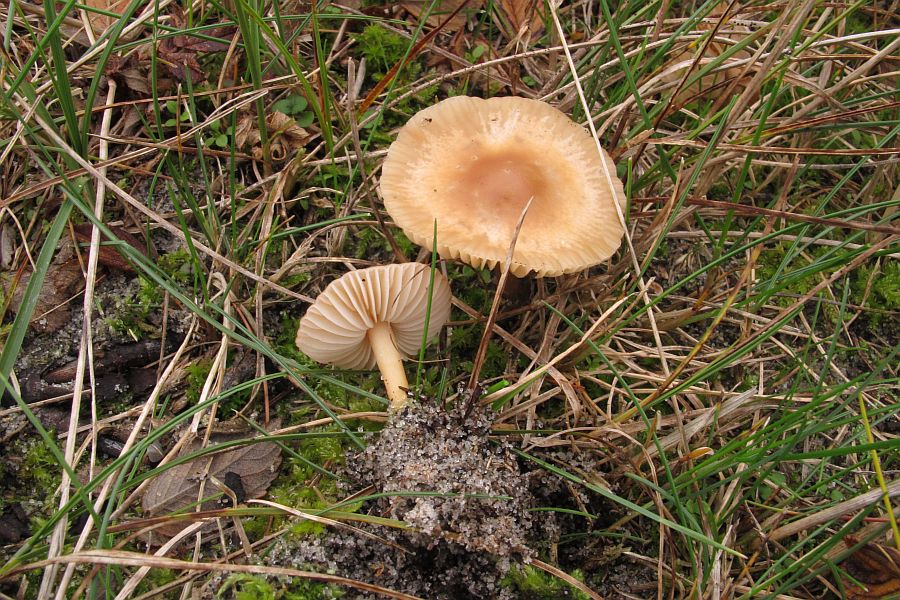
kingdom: Fungi
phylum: Basidiomycota
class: Agaricomycetes
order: Agaricales
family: Marasmiaceae
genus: Marasmius
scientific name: Marasmius oreades
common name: elledans-bruskhat
